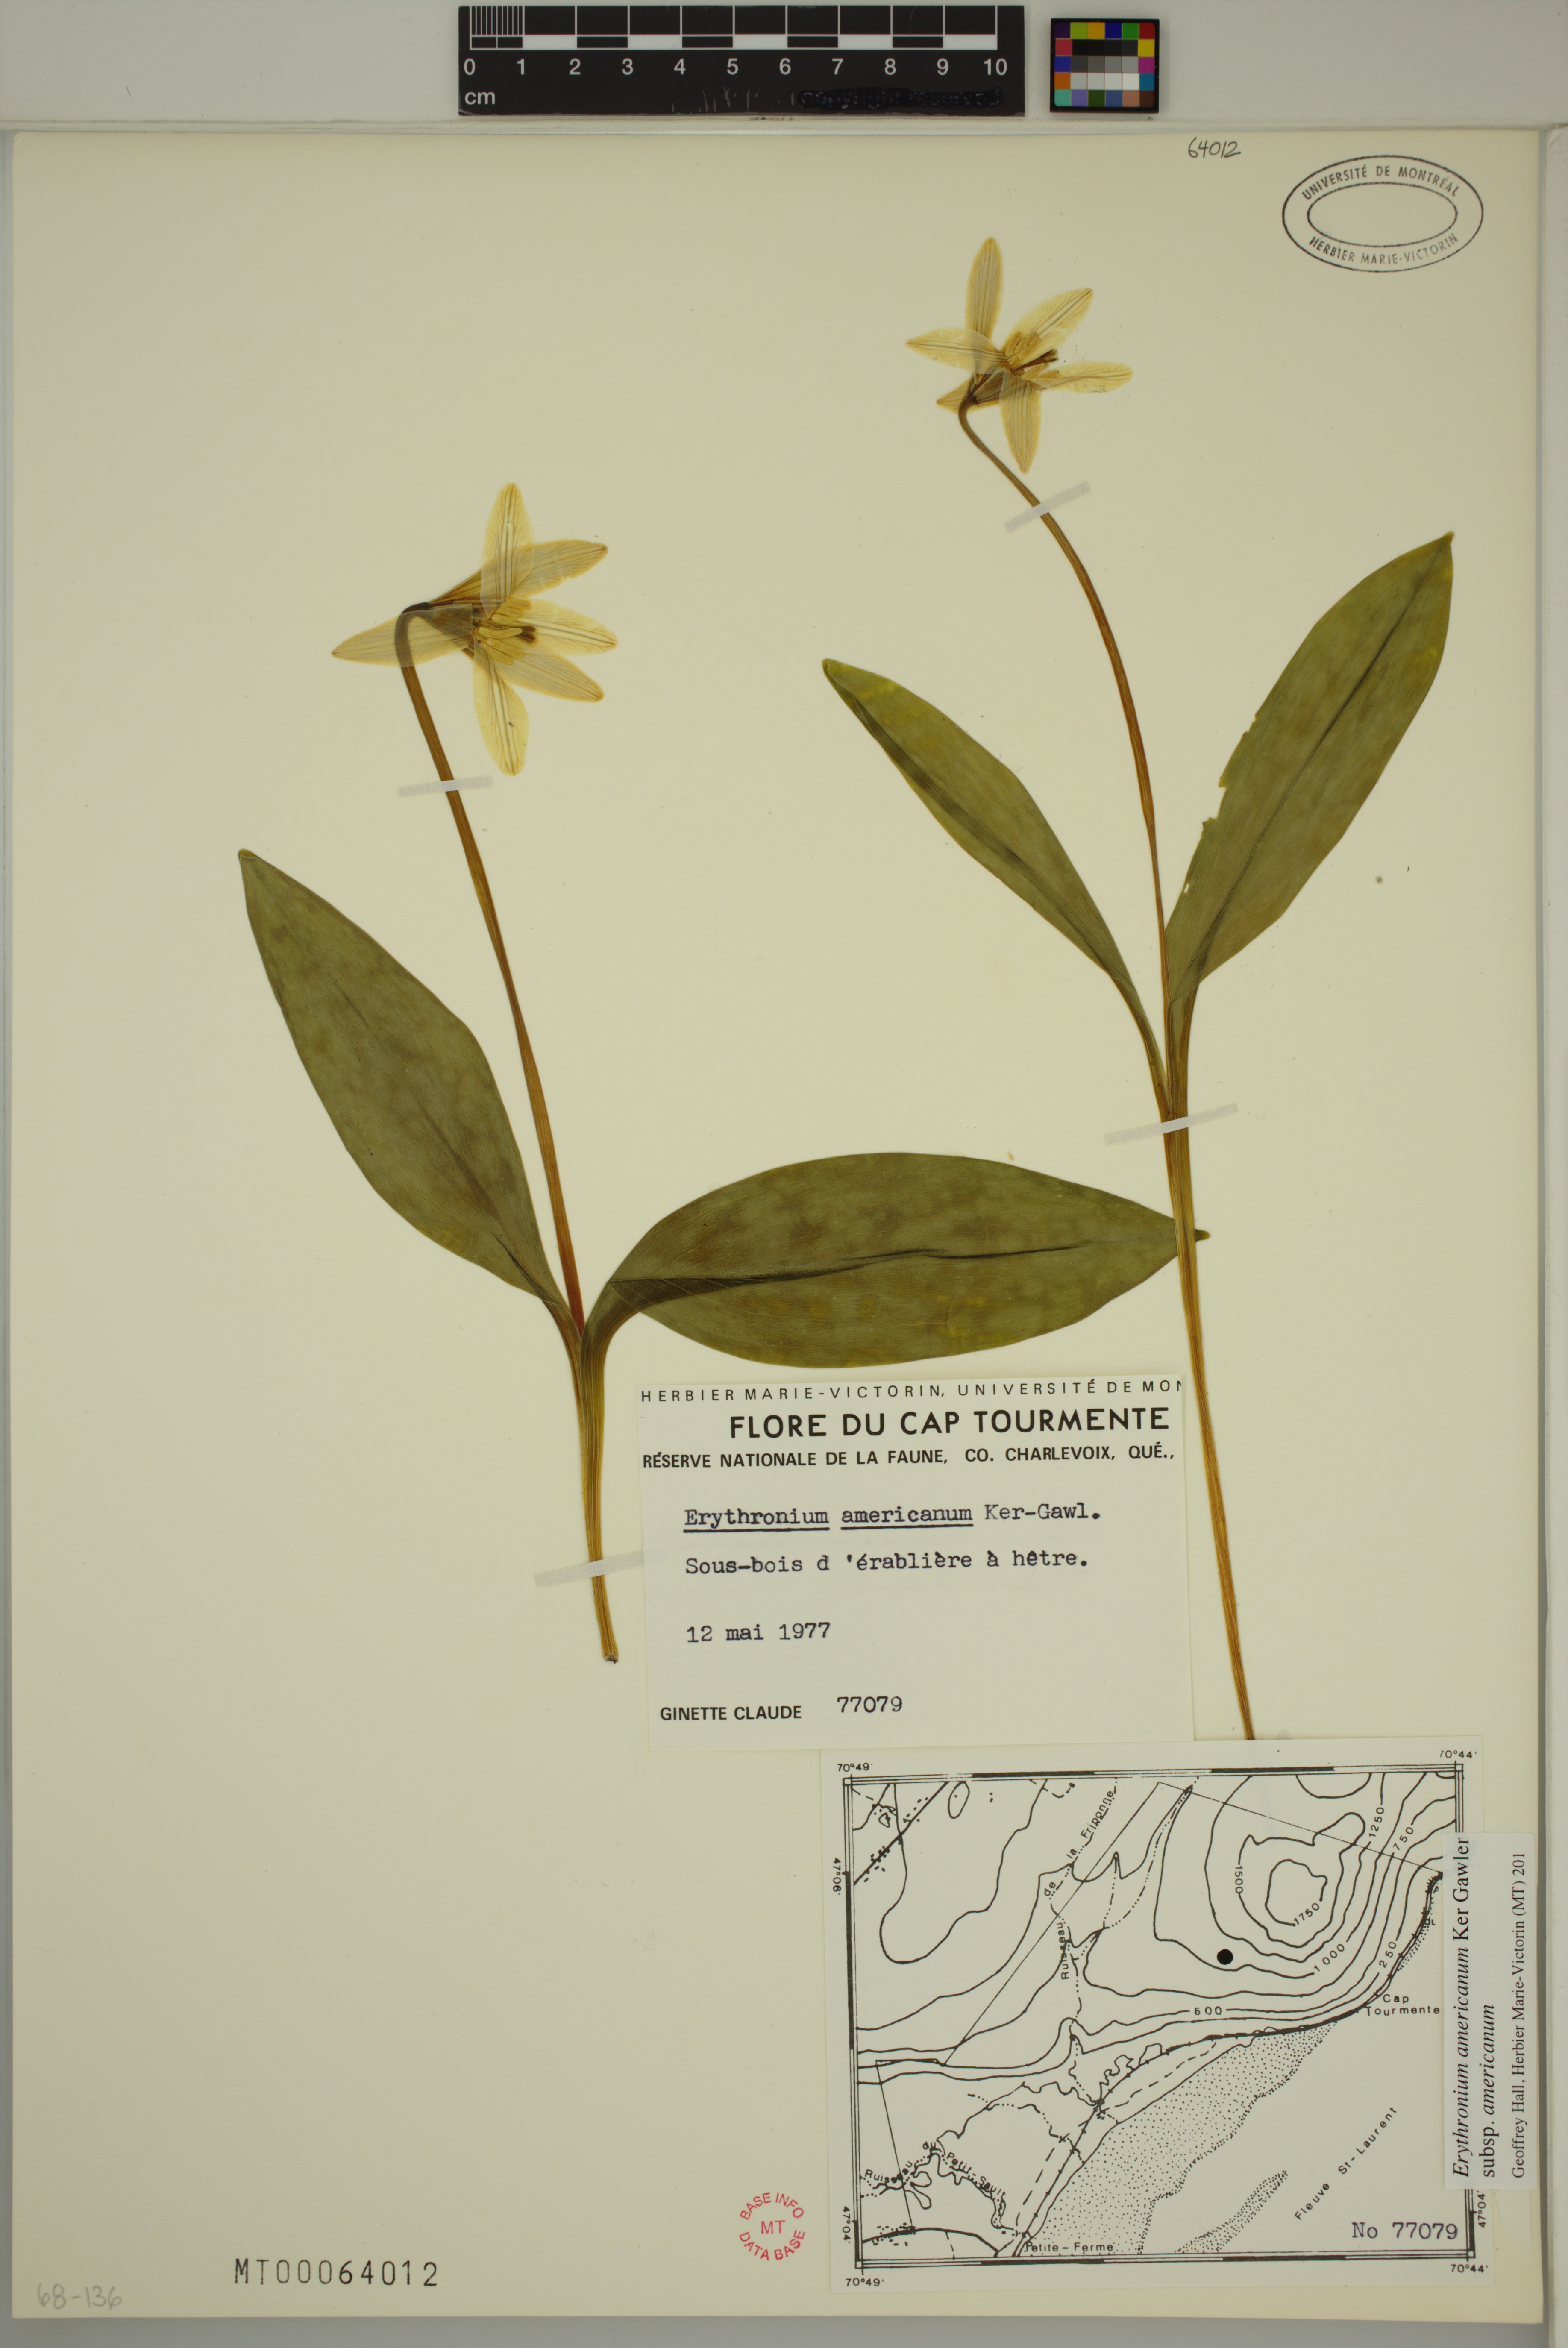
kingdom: Plantae
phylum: Tracheophyta
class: Liliopsida
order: Liliales
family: Liliaceae
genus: Erythronium
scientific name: Erythronium americanum
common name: Yellow adder's-tongue
